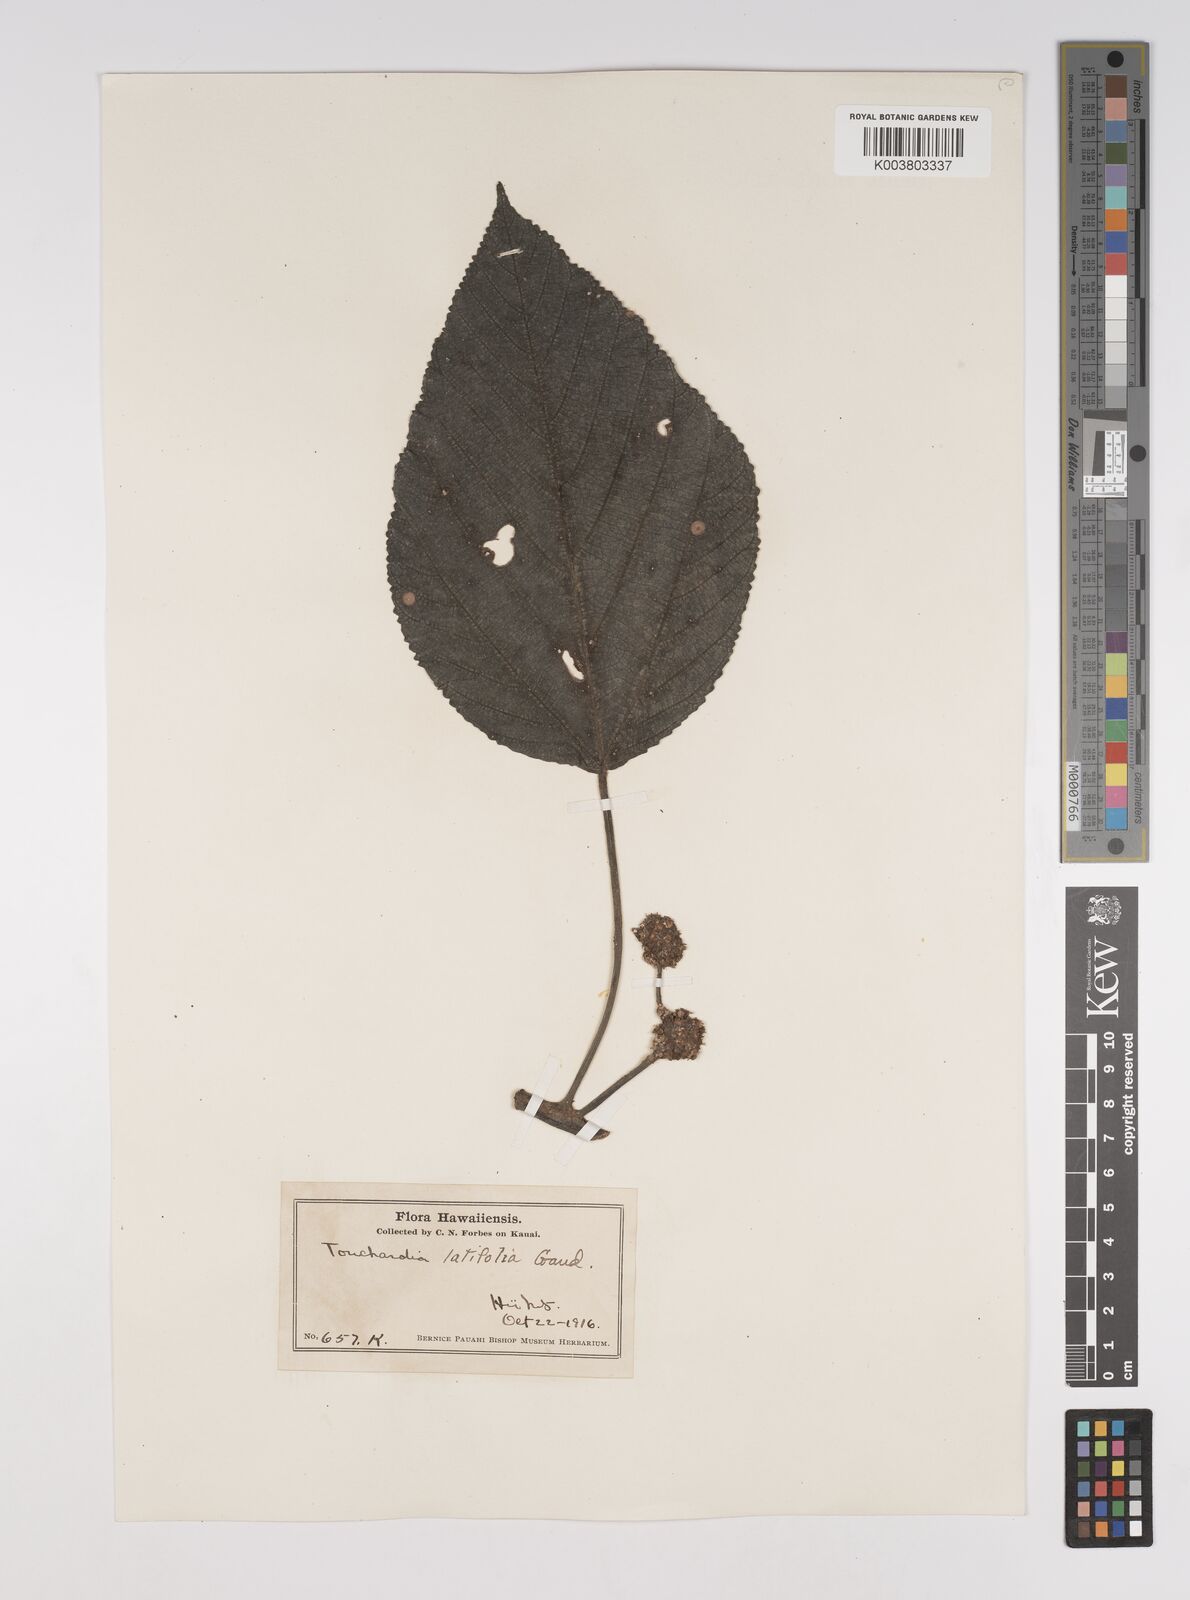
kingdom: Plantae
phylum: Tracheophyta
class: Magnoliopsida
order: Rosales
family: Urticaceae
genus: Touchardia
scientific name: Touchardia latifolia
